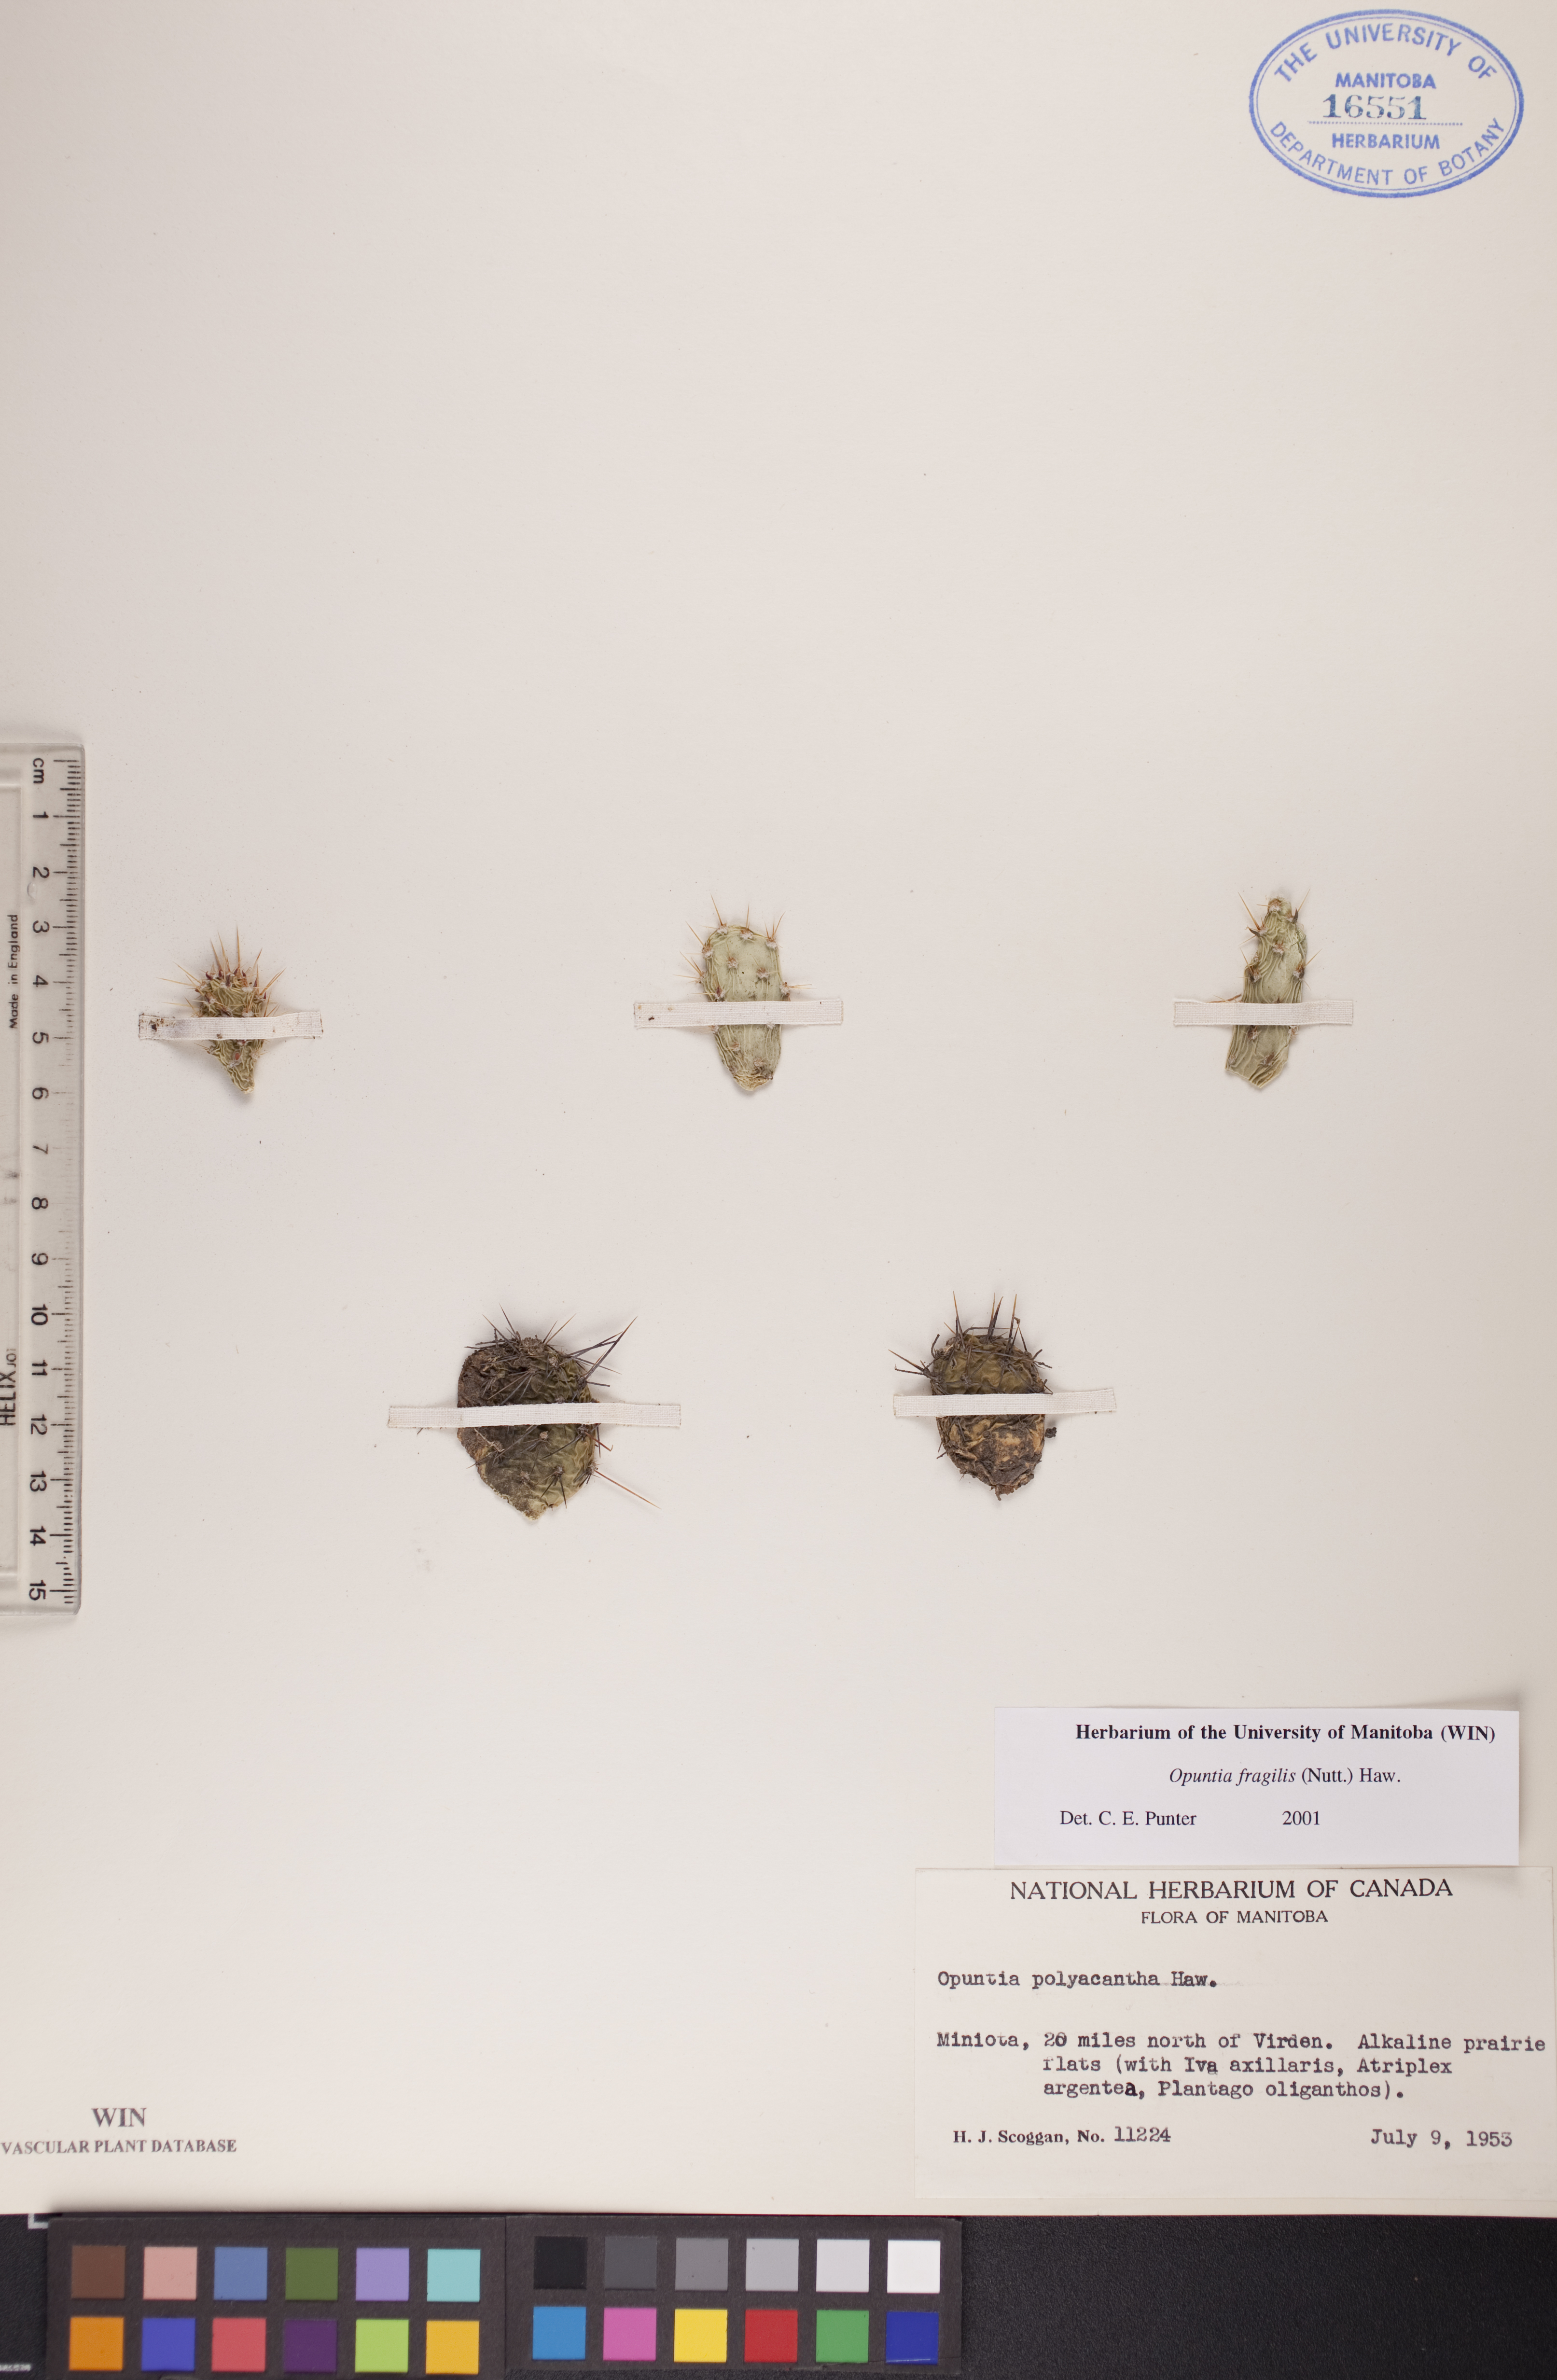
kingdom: Plantae
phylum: Tracheophyta
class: Magnoliopsida
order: Caryophyllales
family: Cactaceae
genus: Opuntia
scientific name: Opuntia fragilis
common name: Brittle cactus
